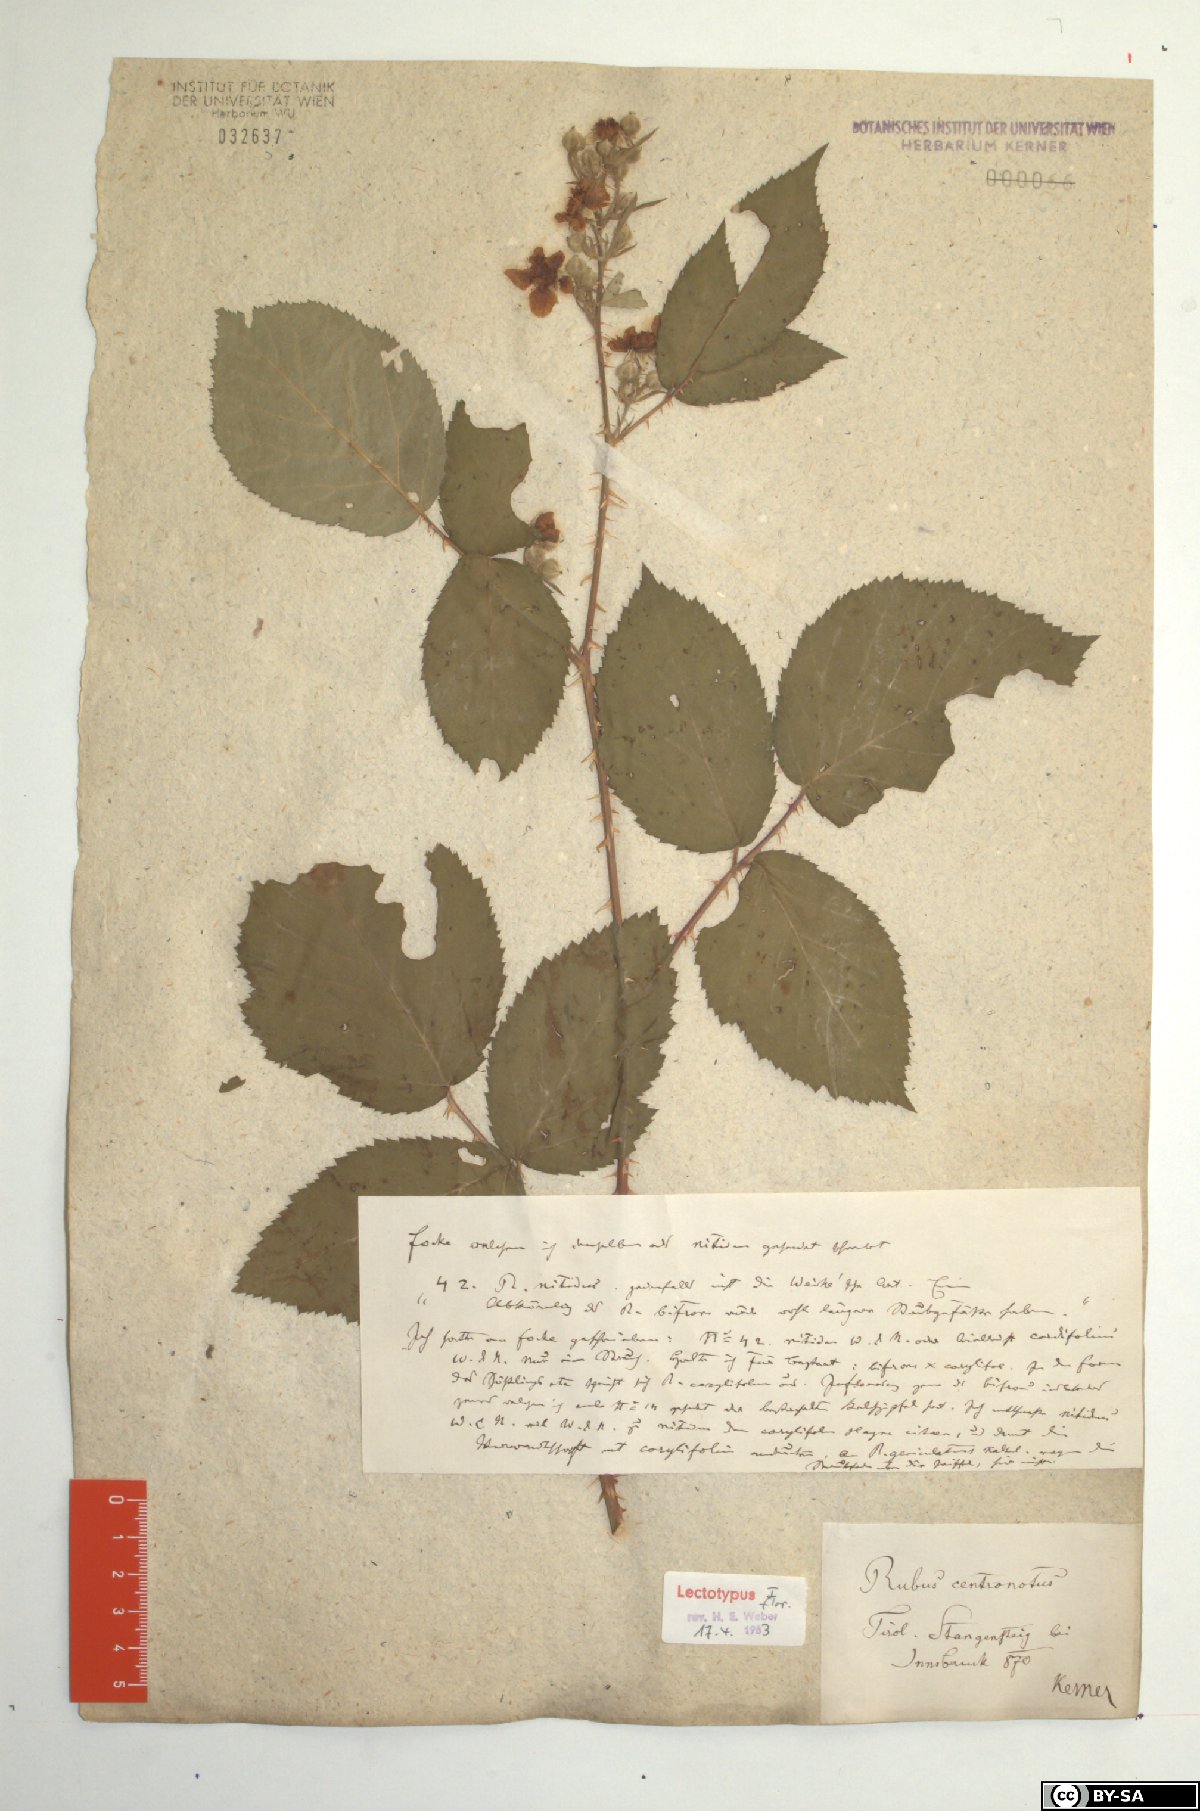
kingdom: Plantae
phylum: Tracheophyta
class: Magnoliopsida
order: Rosales
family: Rosaceae
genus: Rubus
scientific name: Rubus centronotus
